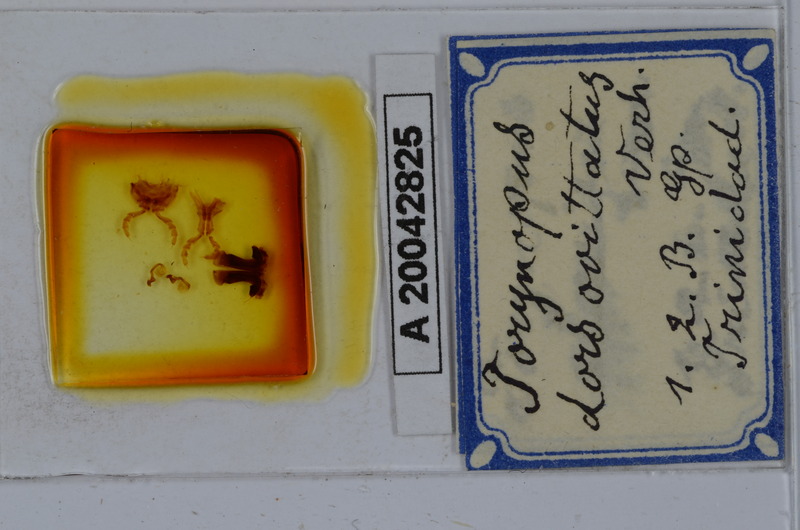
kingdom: Animalia
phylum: Arthropoda
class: Diplopoda
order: Spirostreptida
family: Spirostreptidae
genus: Orthoporus
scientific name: Orthoporus dorsovittatus
